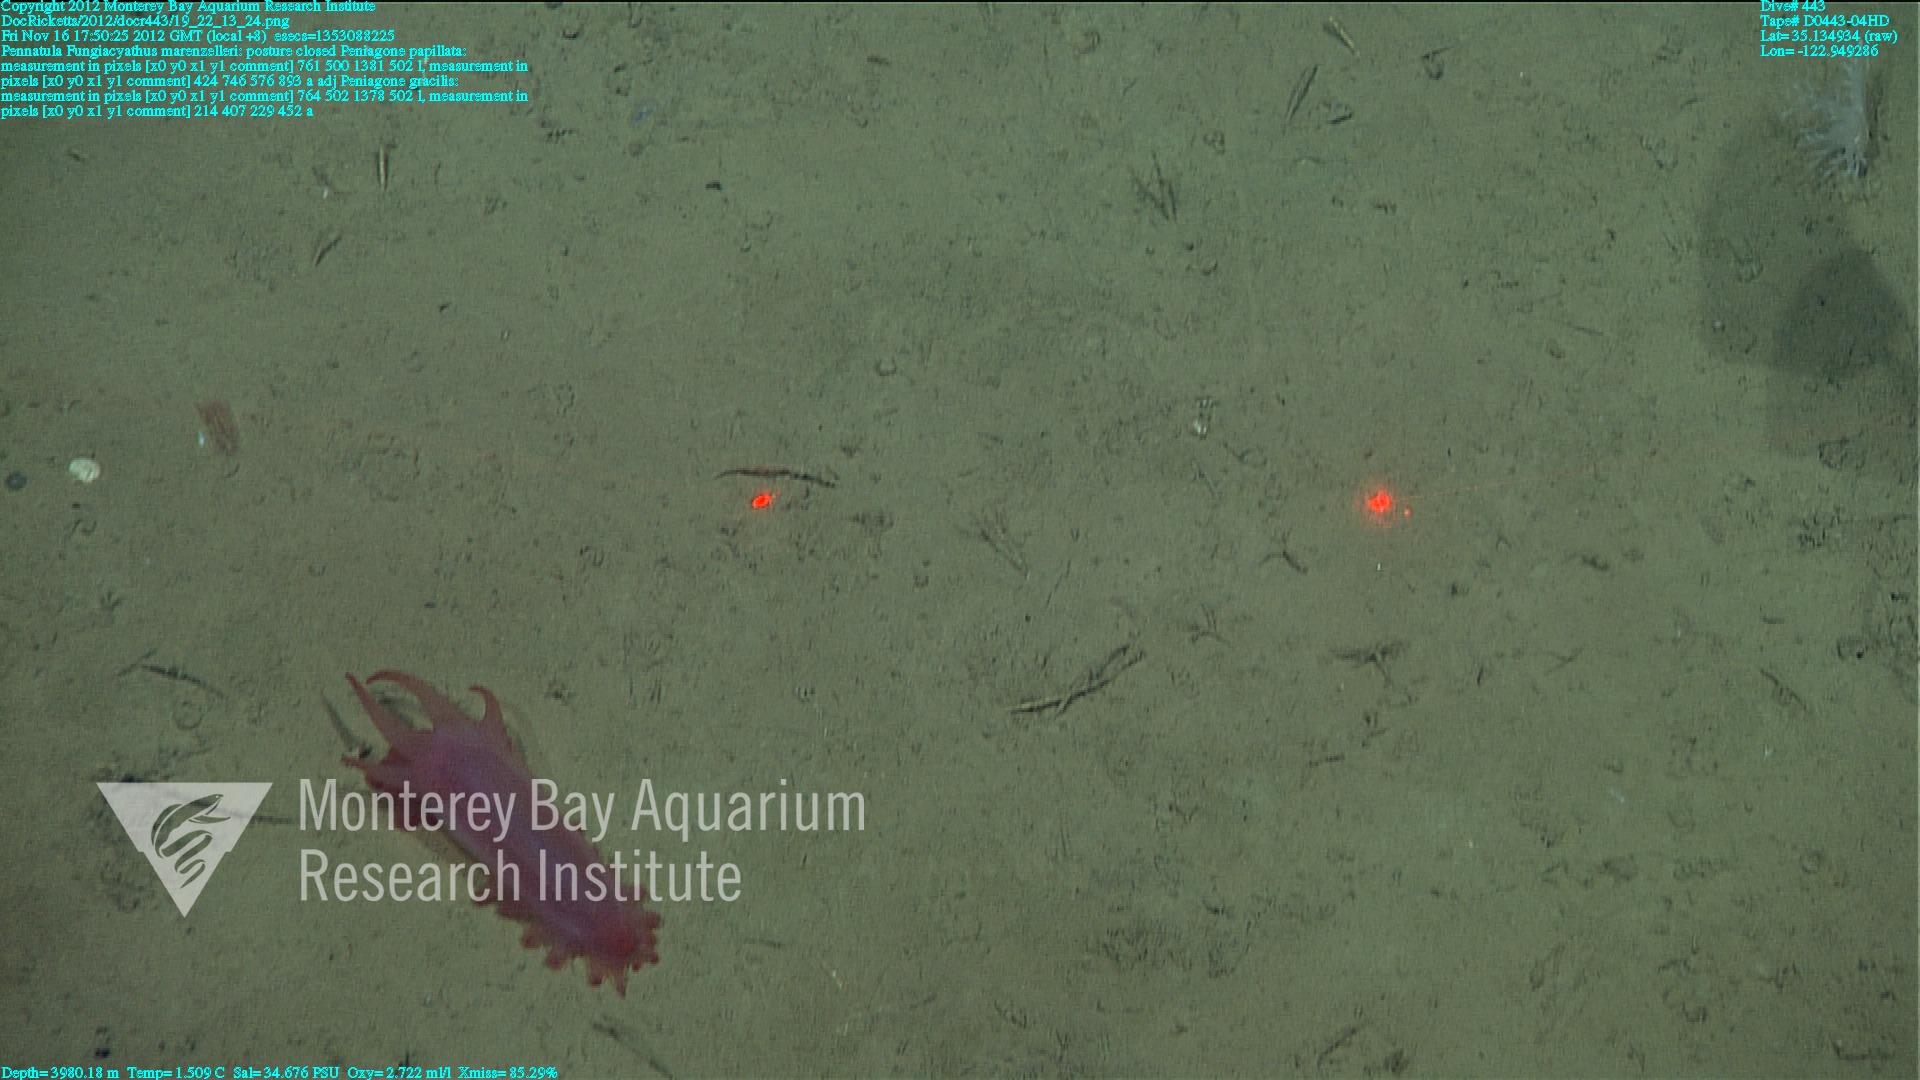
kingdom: Animalia
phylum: Cnidaria
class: Anthozoa
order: Scleractinia
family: Fungiacyathidae
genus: Fungiacyathus
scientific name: Fungiacyathus marenzelleri
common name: Marenzeller's stony coral
